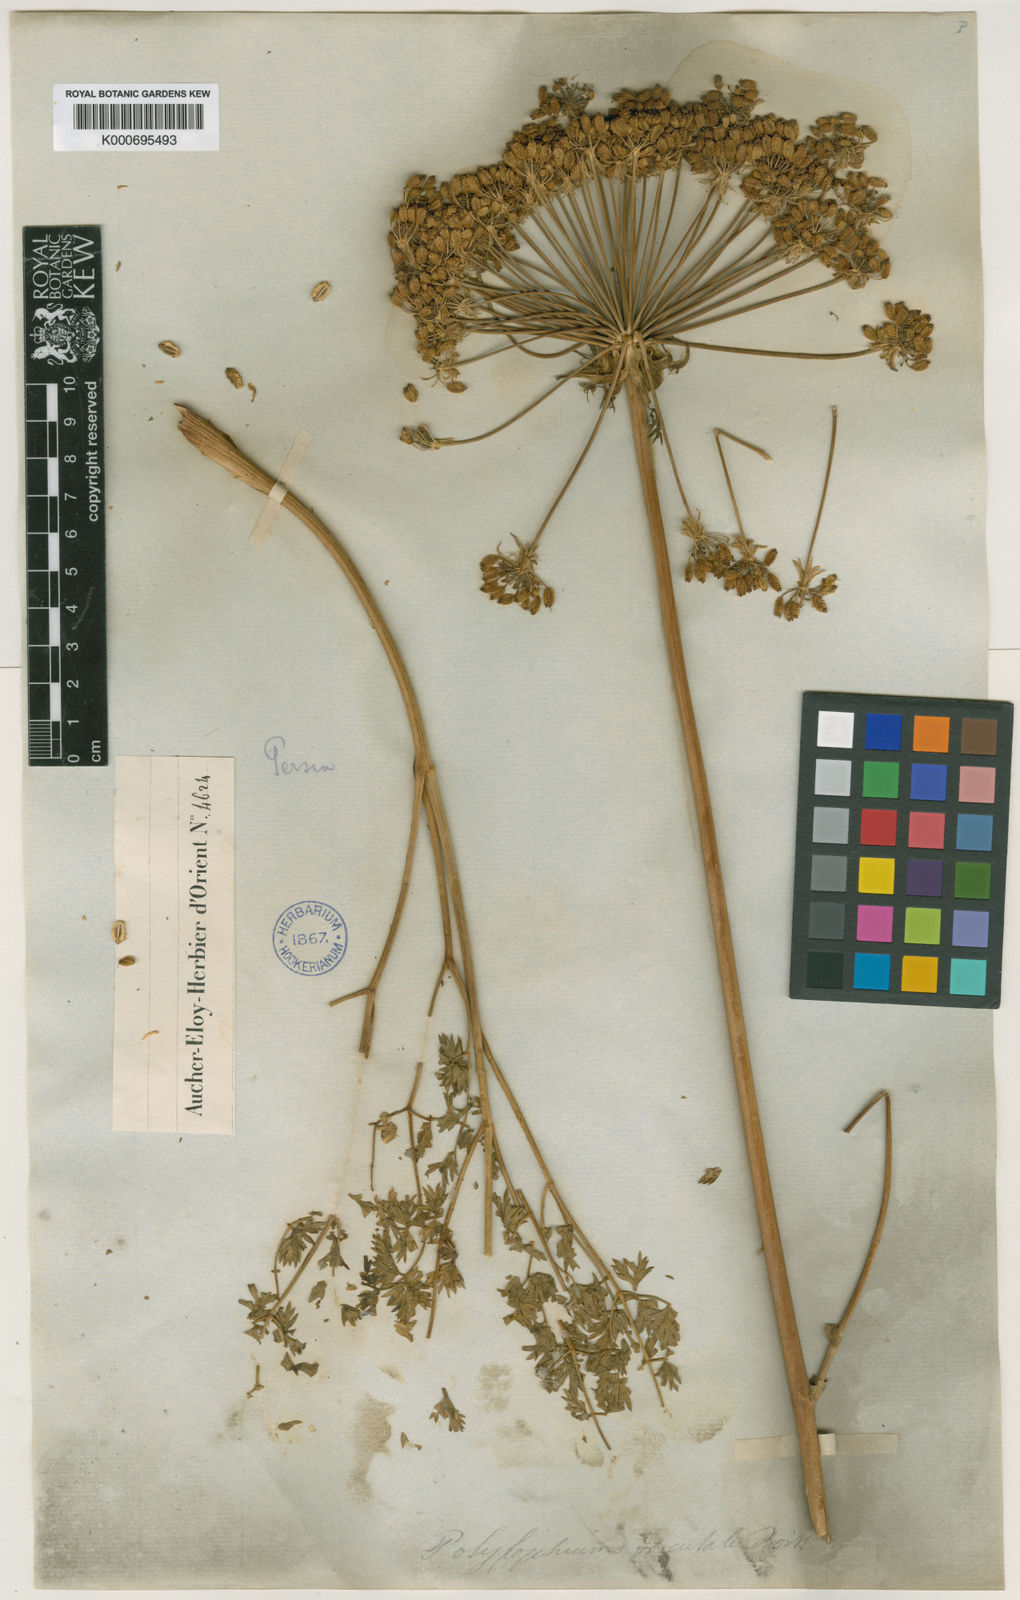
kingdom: Plantae
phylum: Tracheophyta
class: Magnoliopsida
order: Apiales
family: Apiaceae
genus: Laser
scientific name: Laser involucratum
